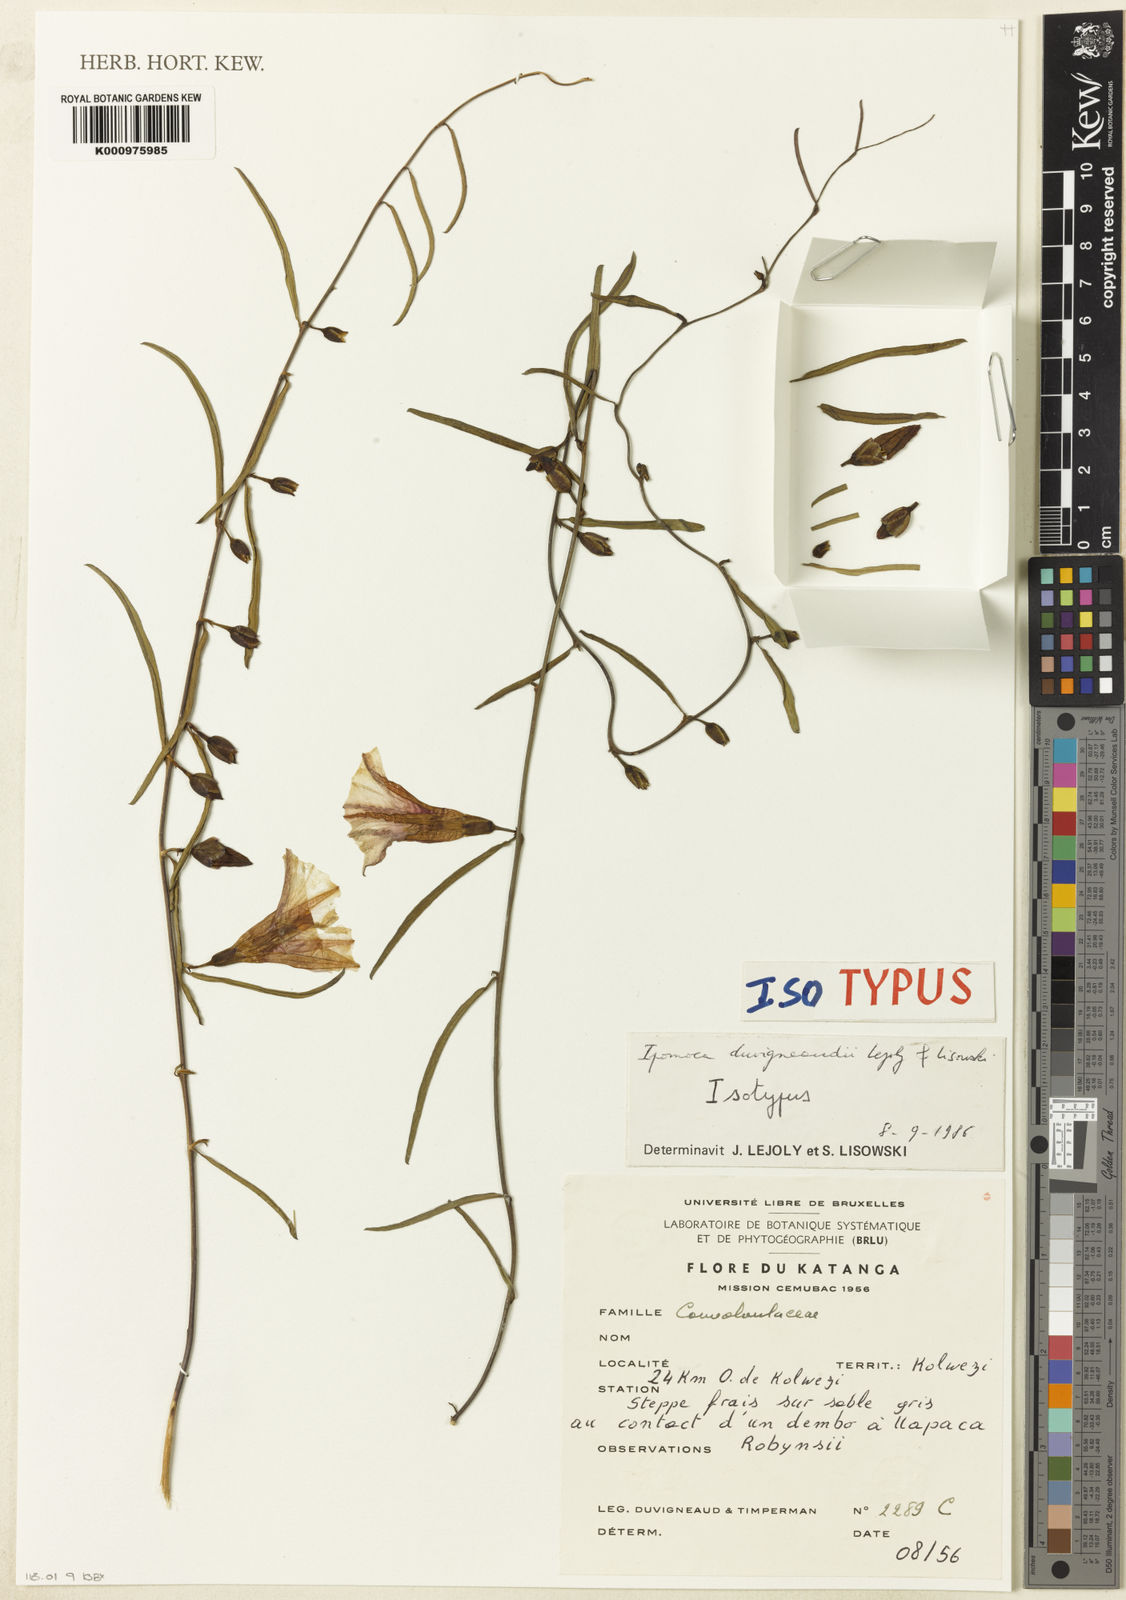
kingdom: Plantae
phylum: Tracheophyta
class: Magnoliopsida
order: Solanales
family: Convolvulaceae
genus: Ipomoea
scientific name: Ipomoea duvigneaudii
